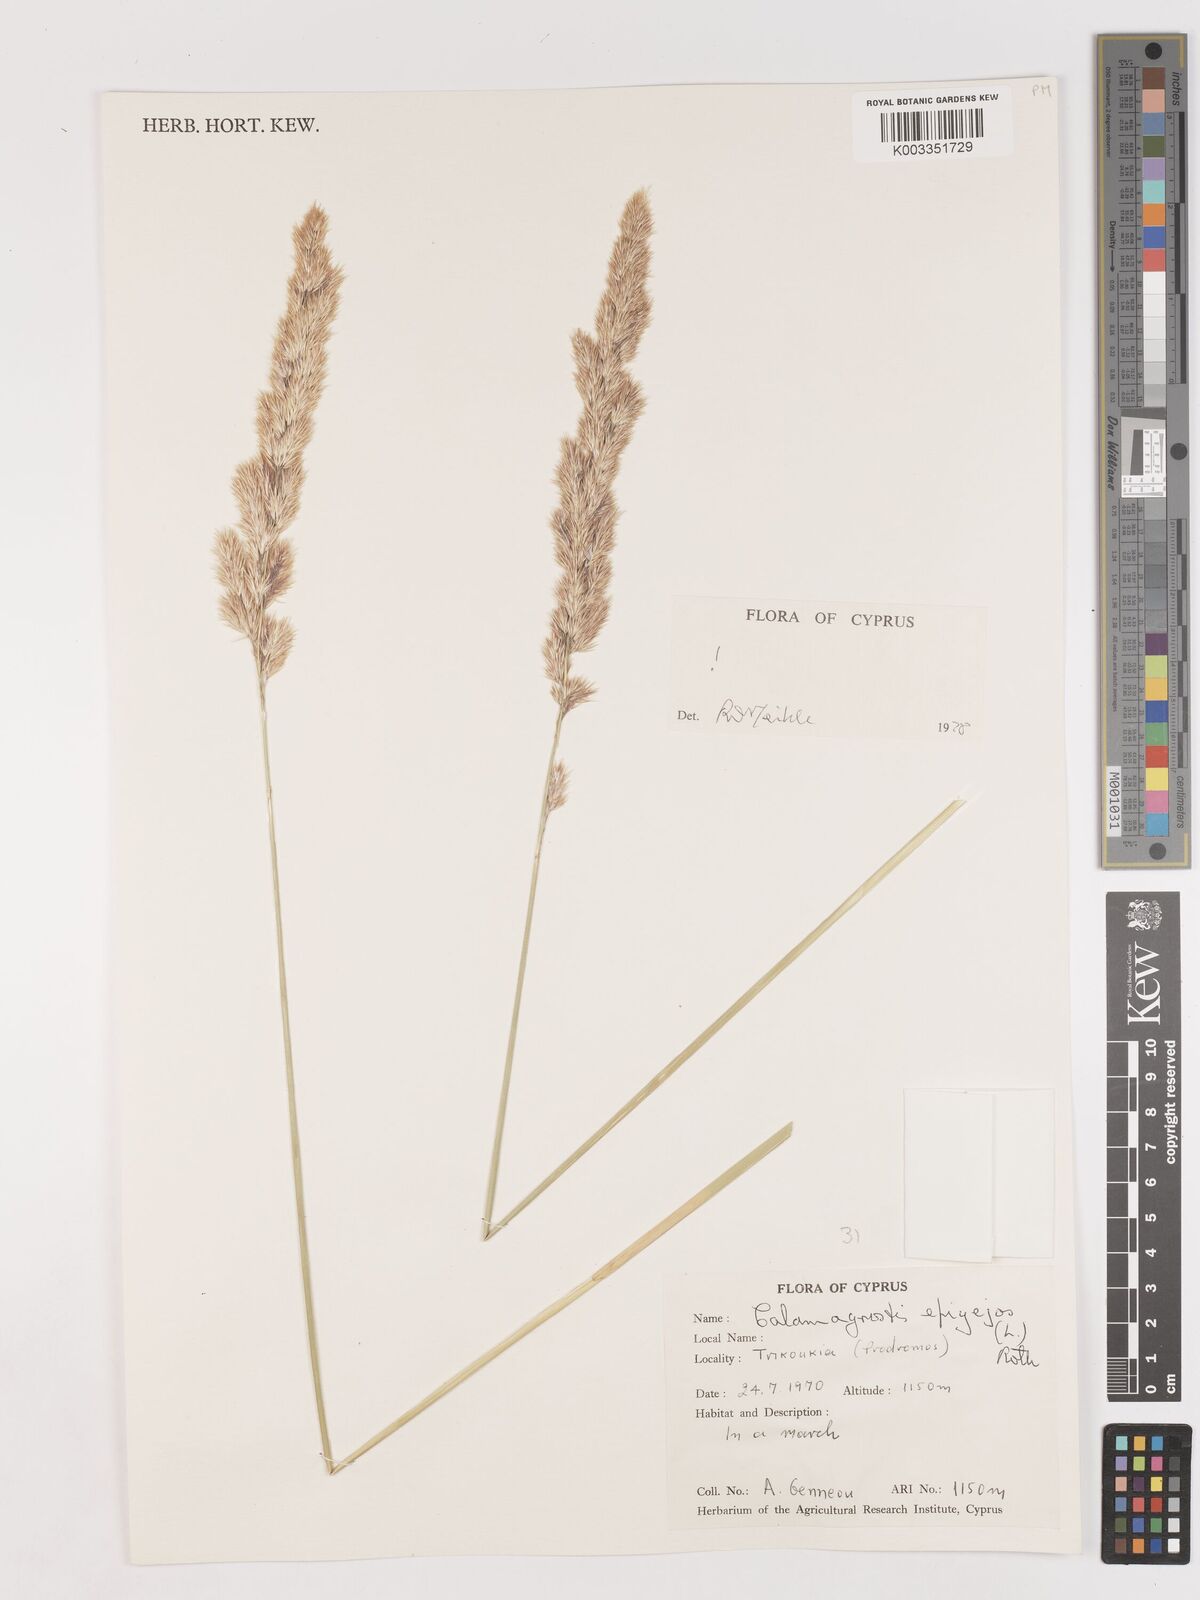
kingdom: Plantae
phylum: Tracheophyta
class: Liliopsida
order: Poales
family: Poaceae
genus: Calamagrostis
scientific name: Calamagrostis epigejos
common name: Wood small-reed
